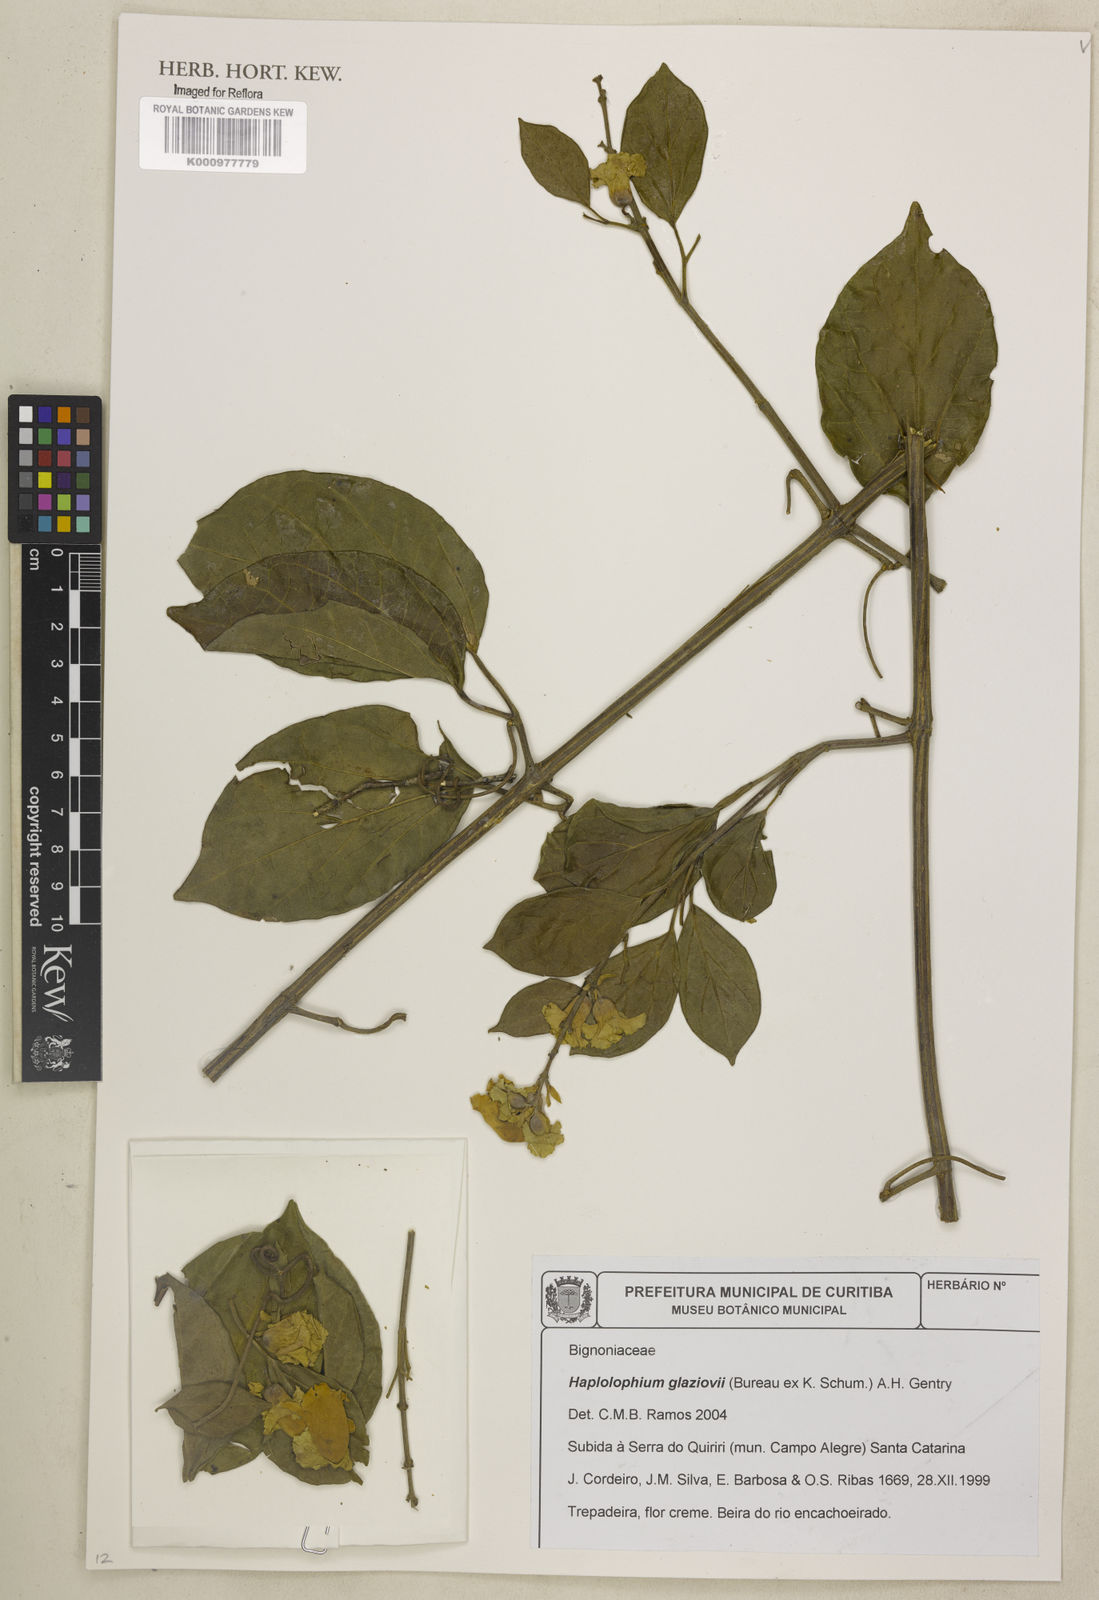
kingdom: Plantae
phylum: Tracheophyta
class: Magnoliopsida
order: Lamiales
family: Bignoniaceae
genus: Amphilophium
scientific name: Amphilophium dusenianum
